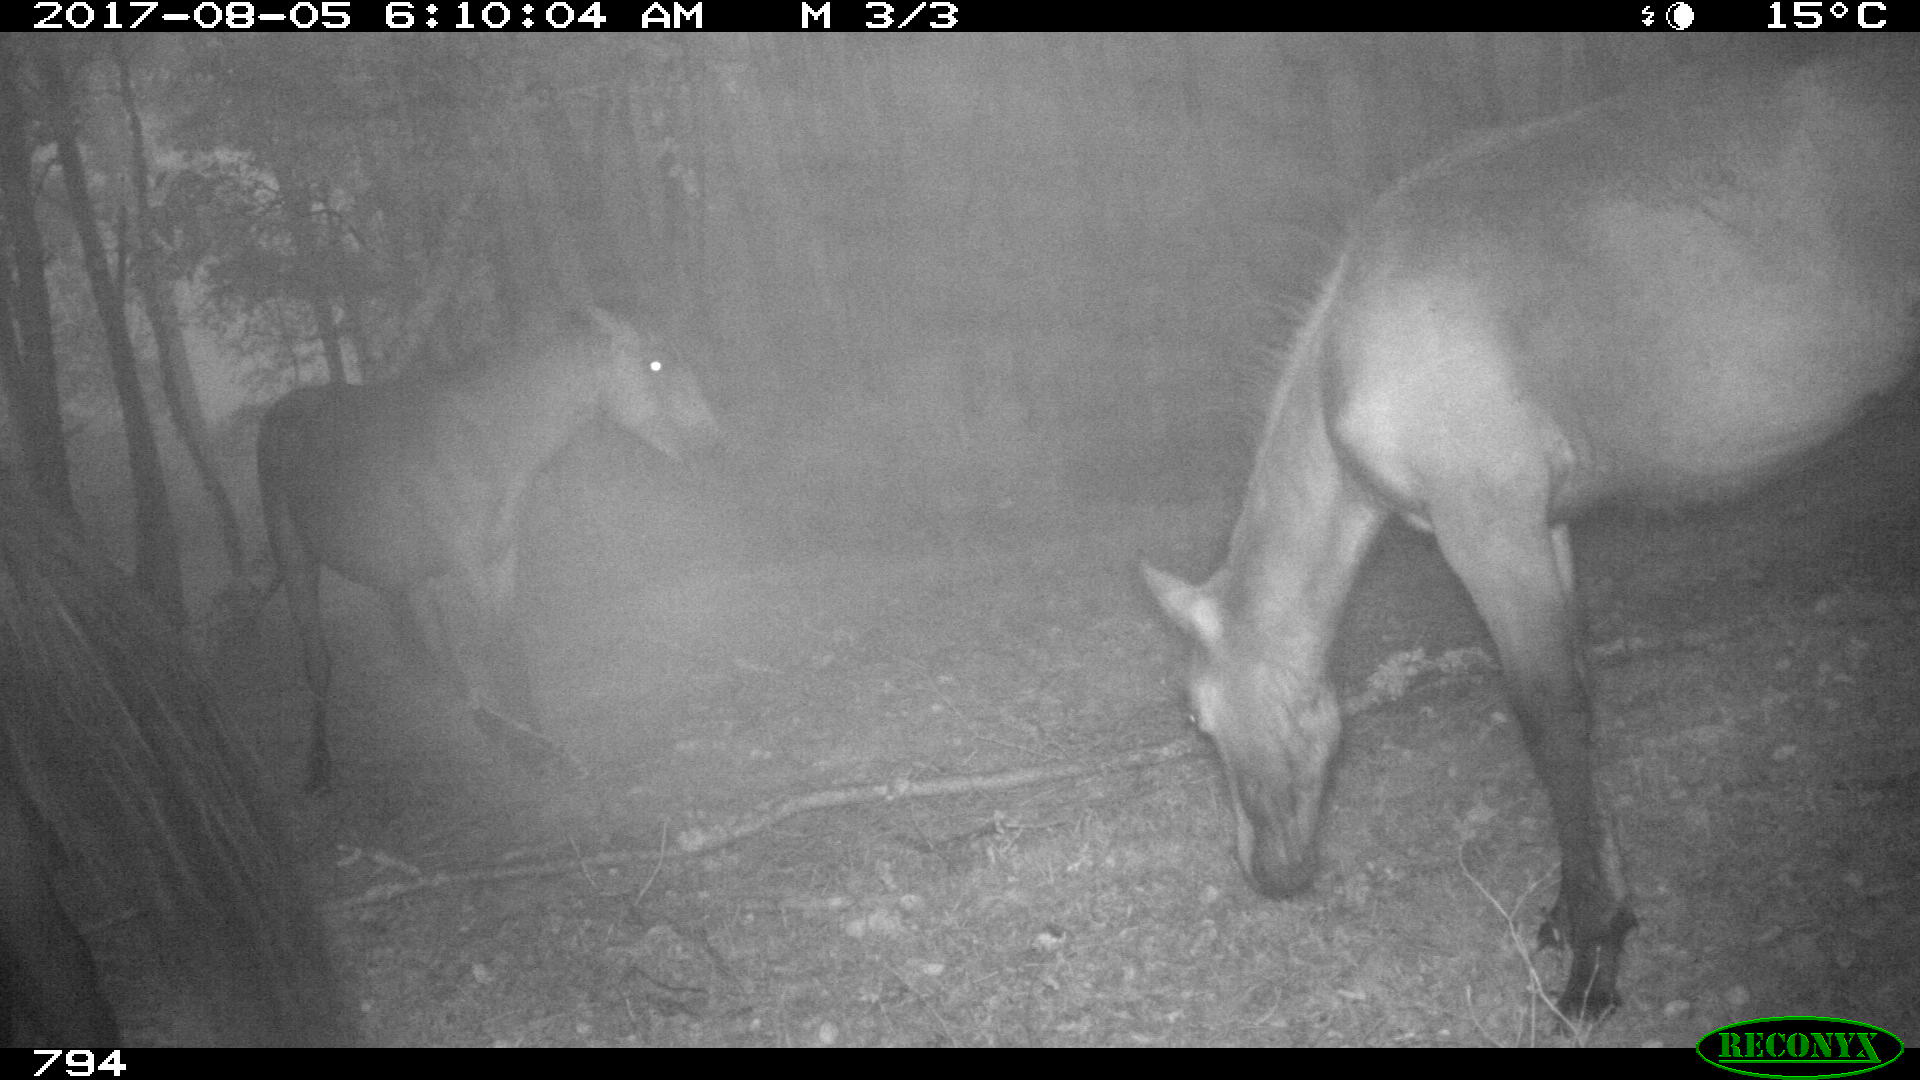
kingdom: Animalia
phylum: Chordata
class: Mammalia
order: Perissodactyla
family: Equidae
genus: Equus
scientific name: Equus caballus
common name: Horse
